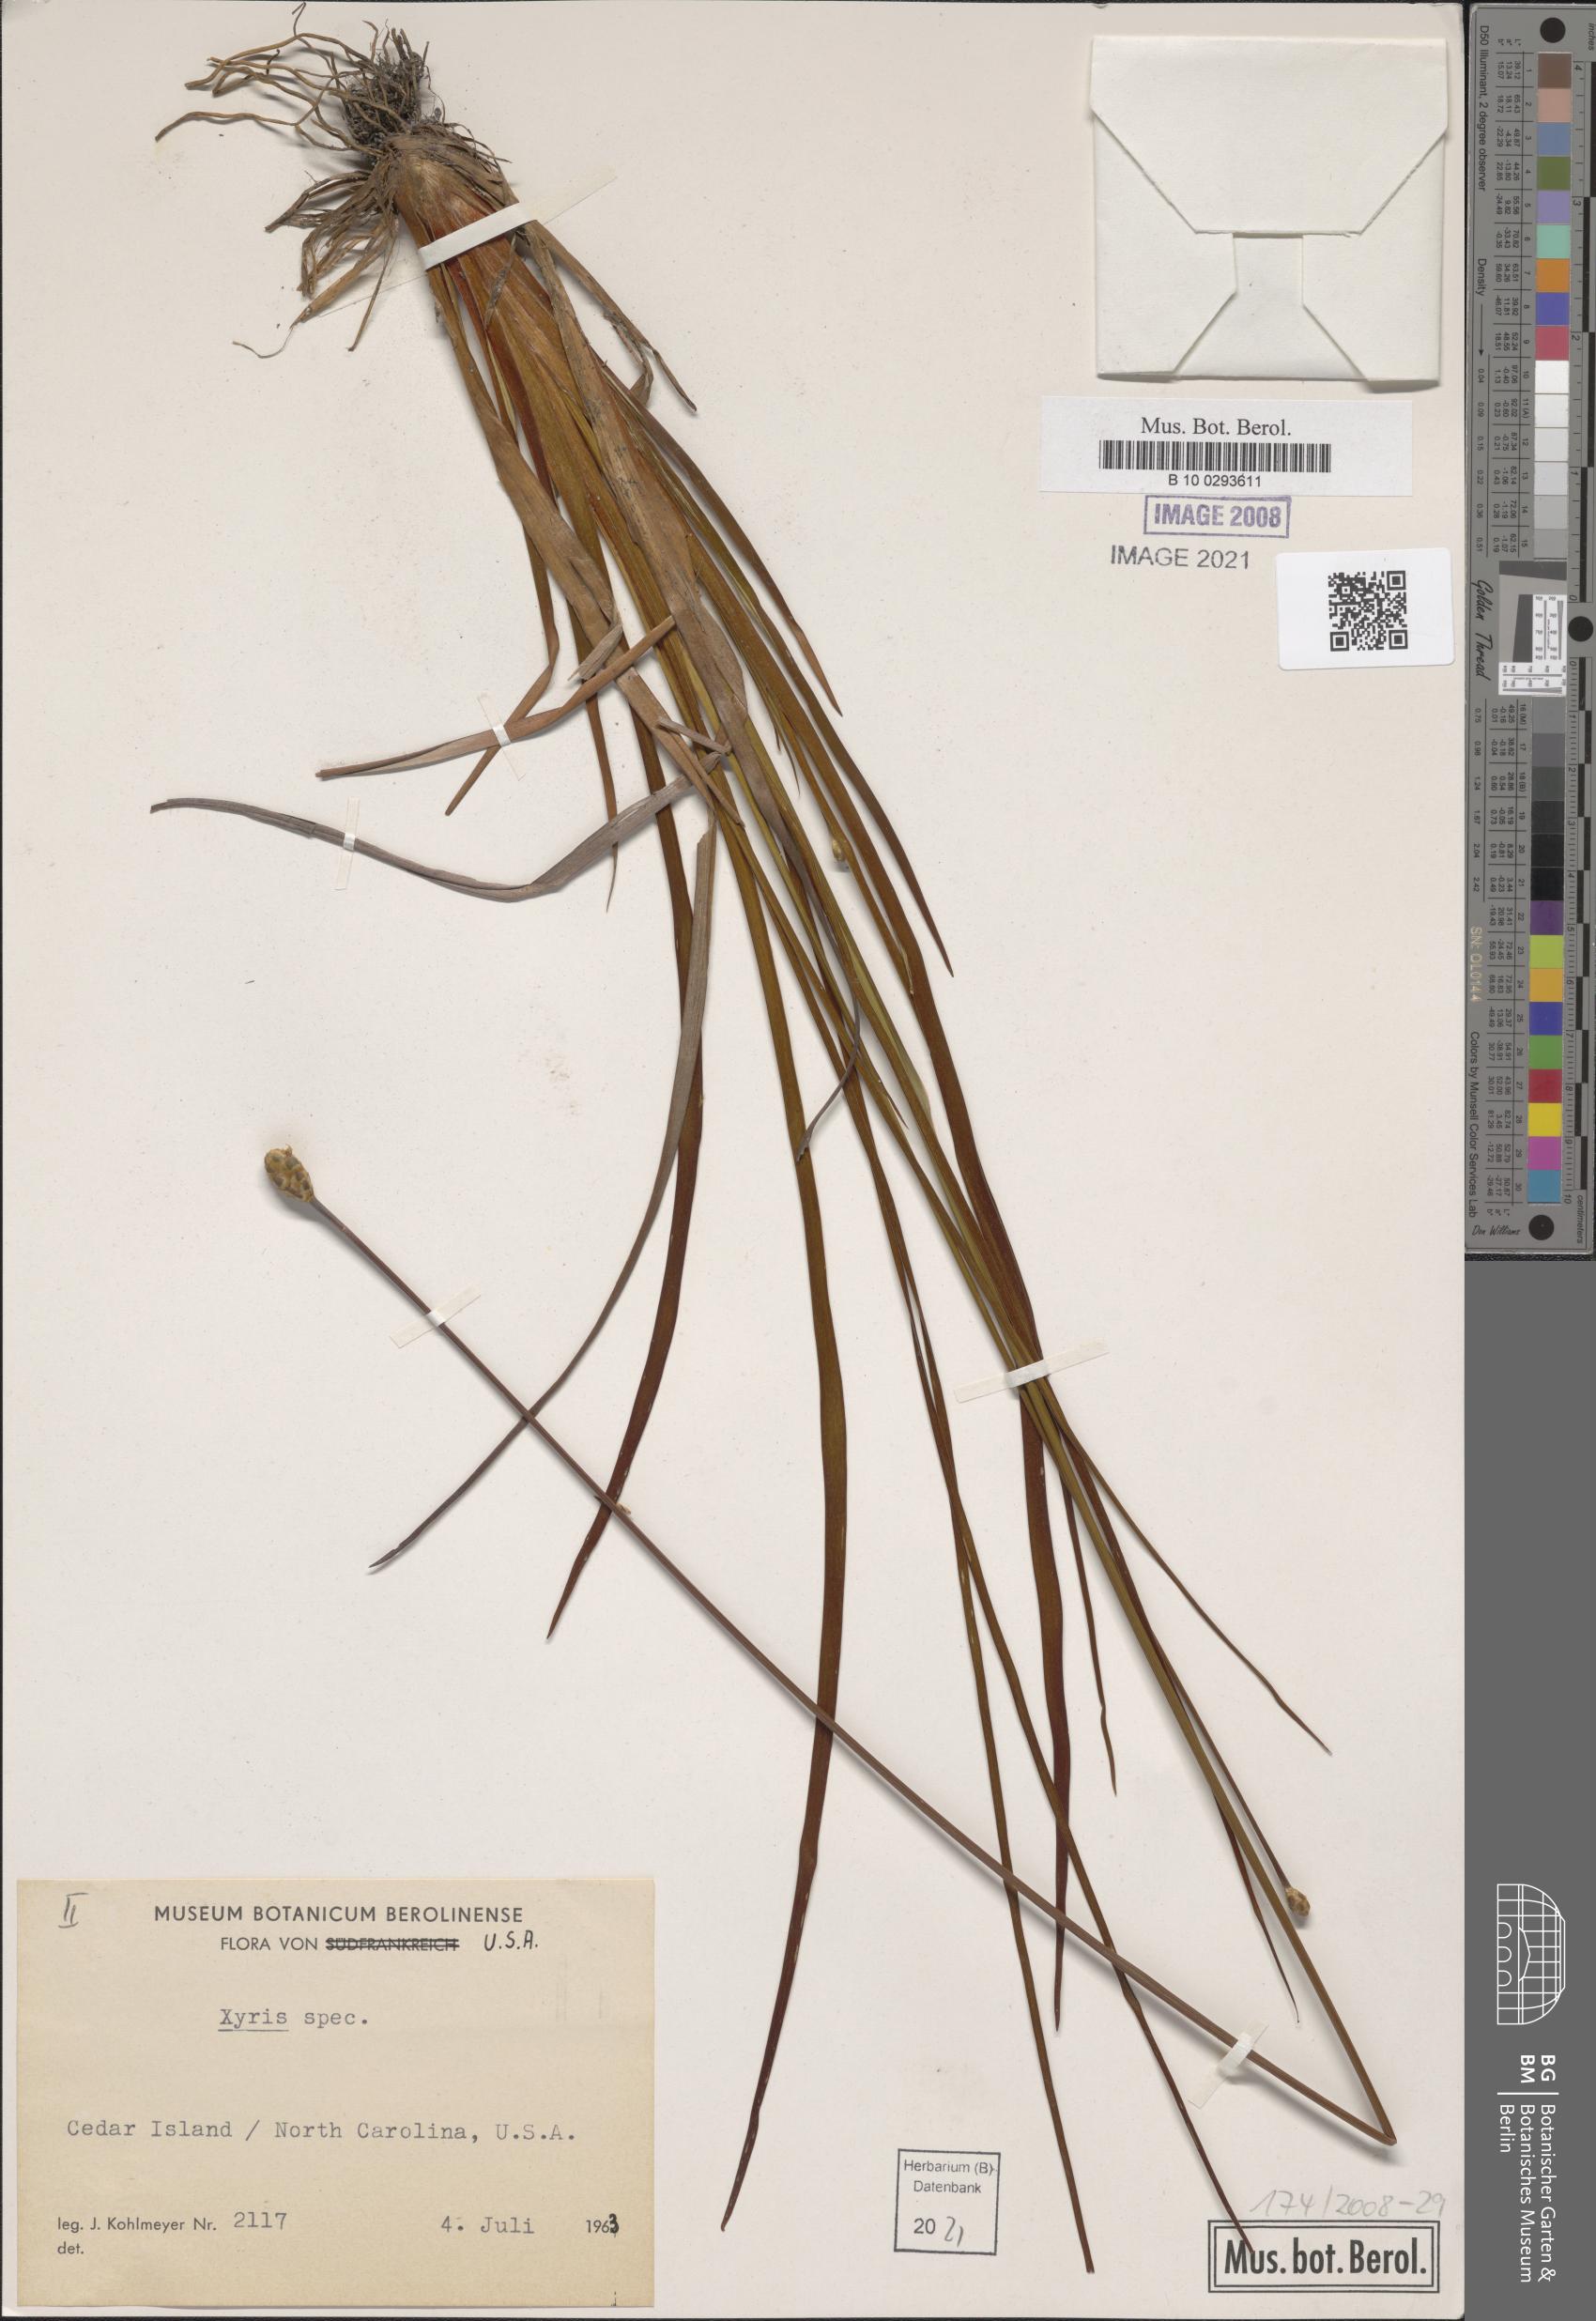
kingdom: Plantae
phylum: Tracheophyta
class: Liliopsida
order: Poales
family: Xyridaceae
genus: Xyris
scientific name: Xyris
